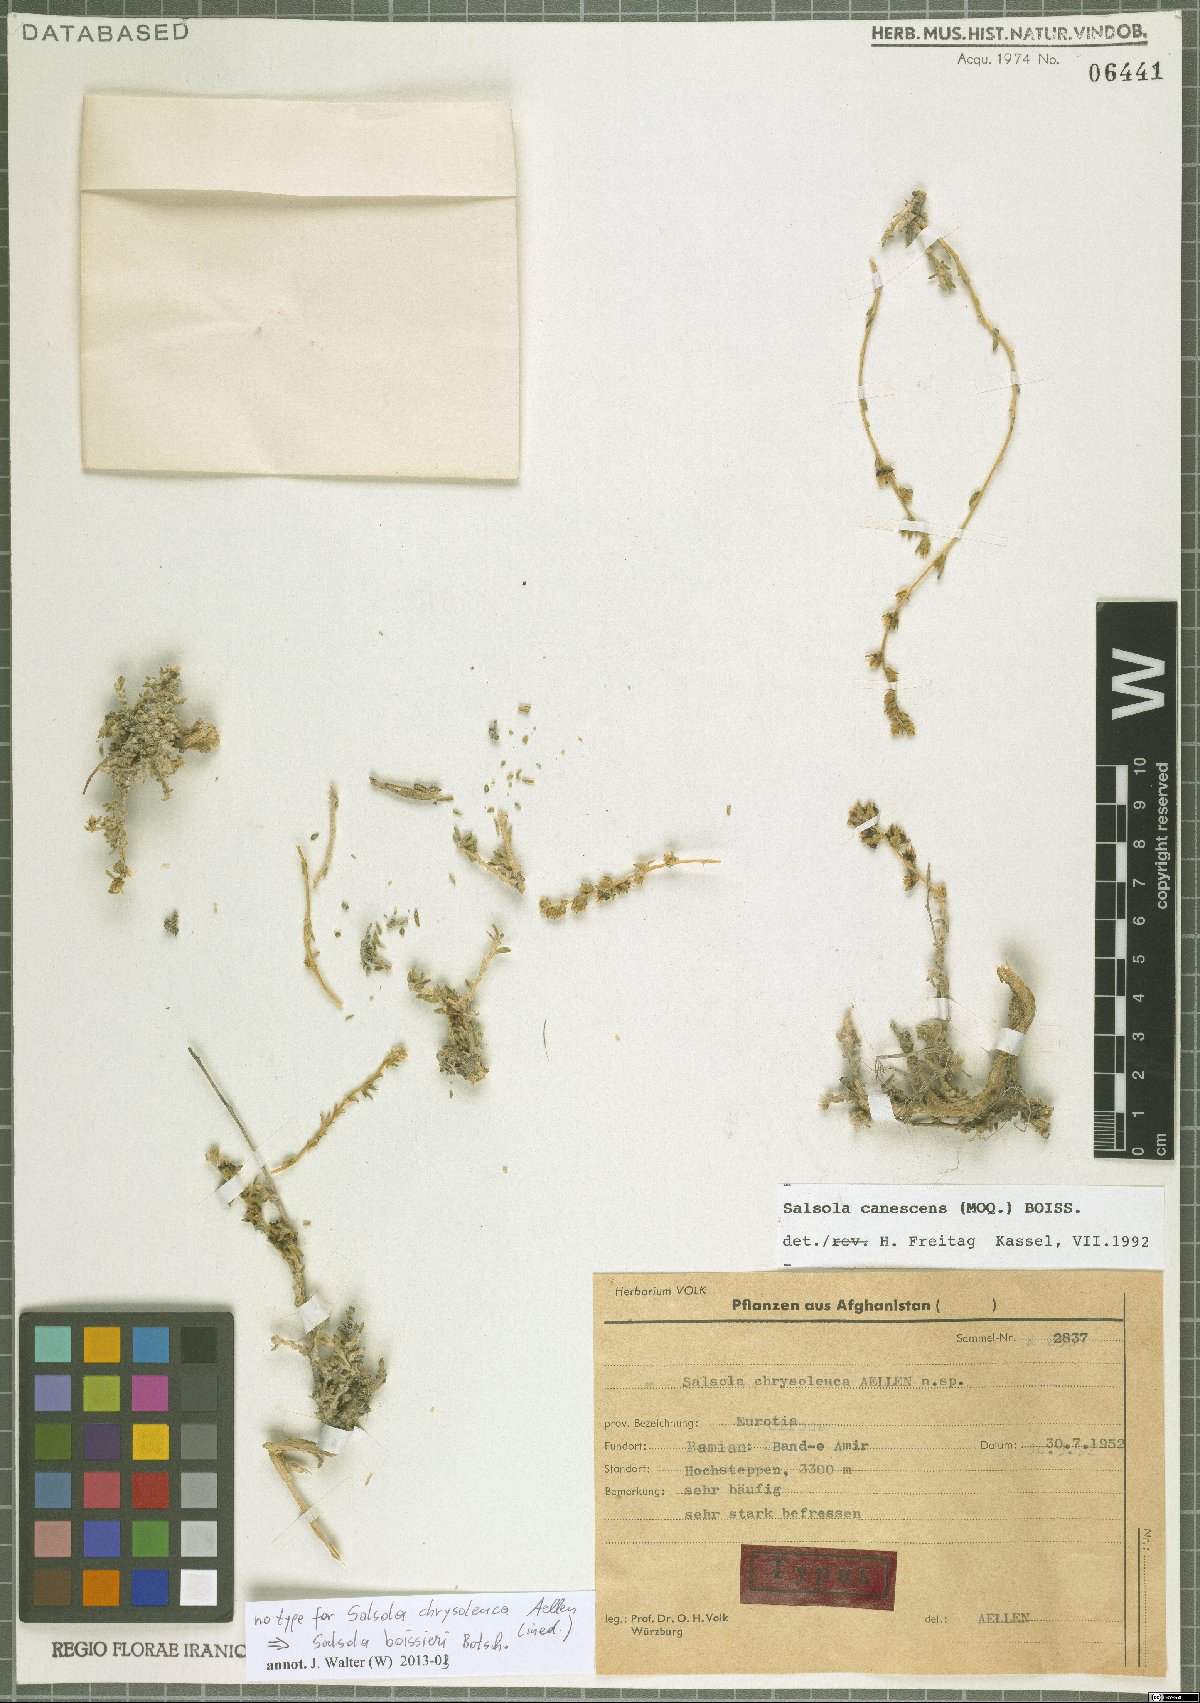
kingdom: Plantae
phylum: Tracheophyta
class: Magnoliopsida
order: Caryophyllales
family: Amaranthaceae
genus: Akhania
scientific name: Akhania canescens
